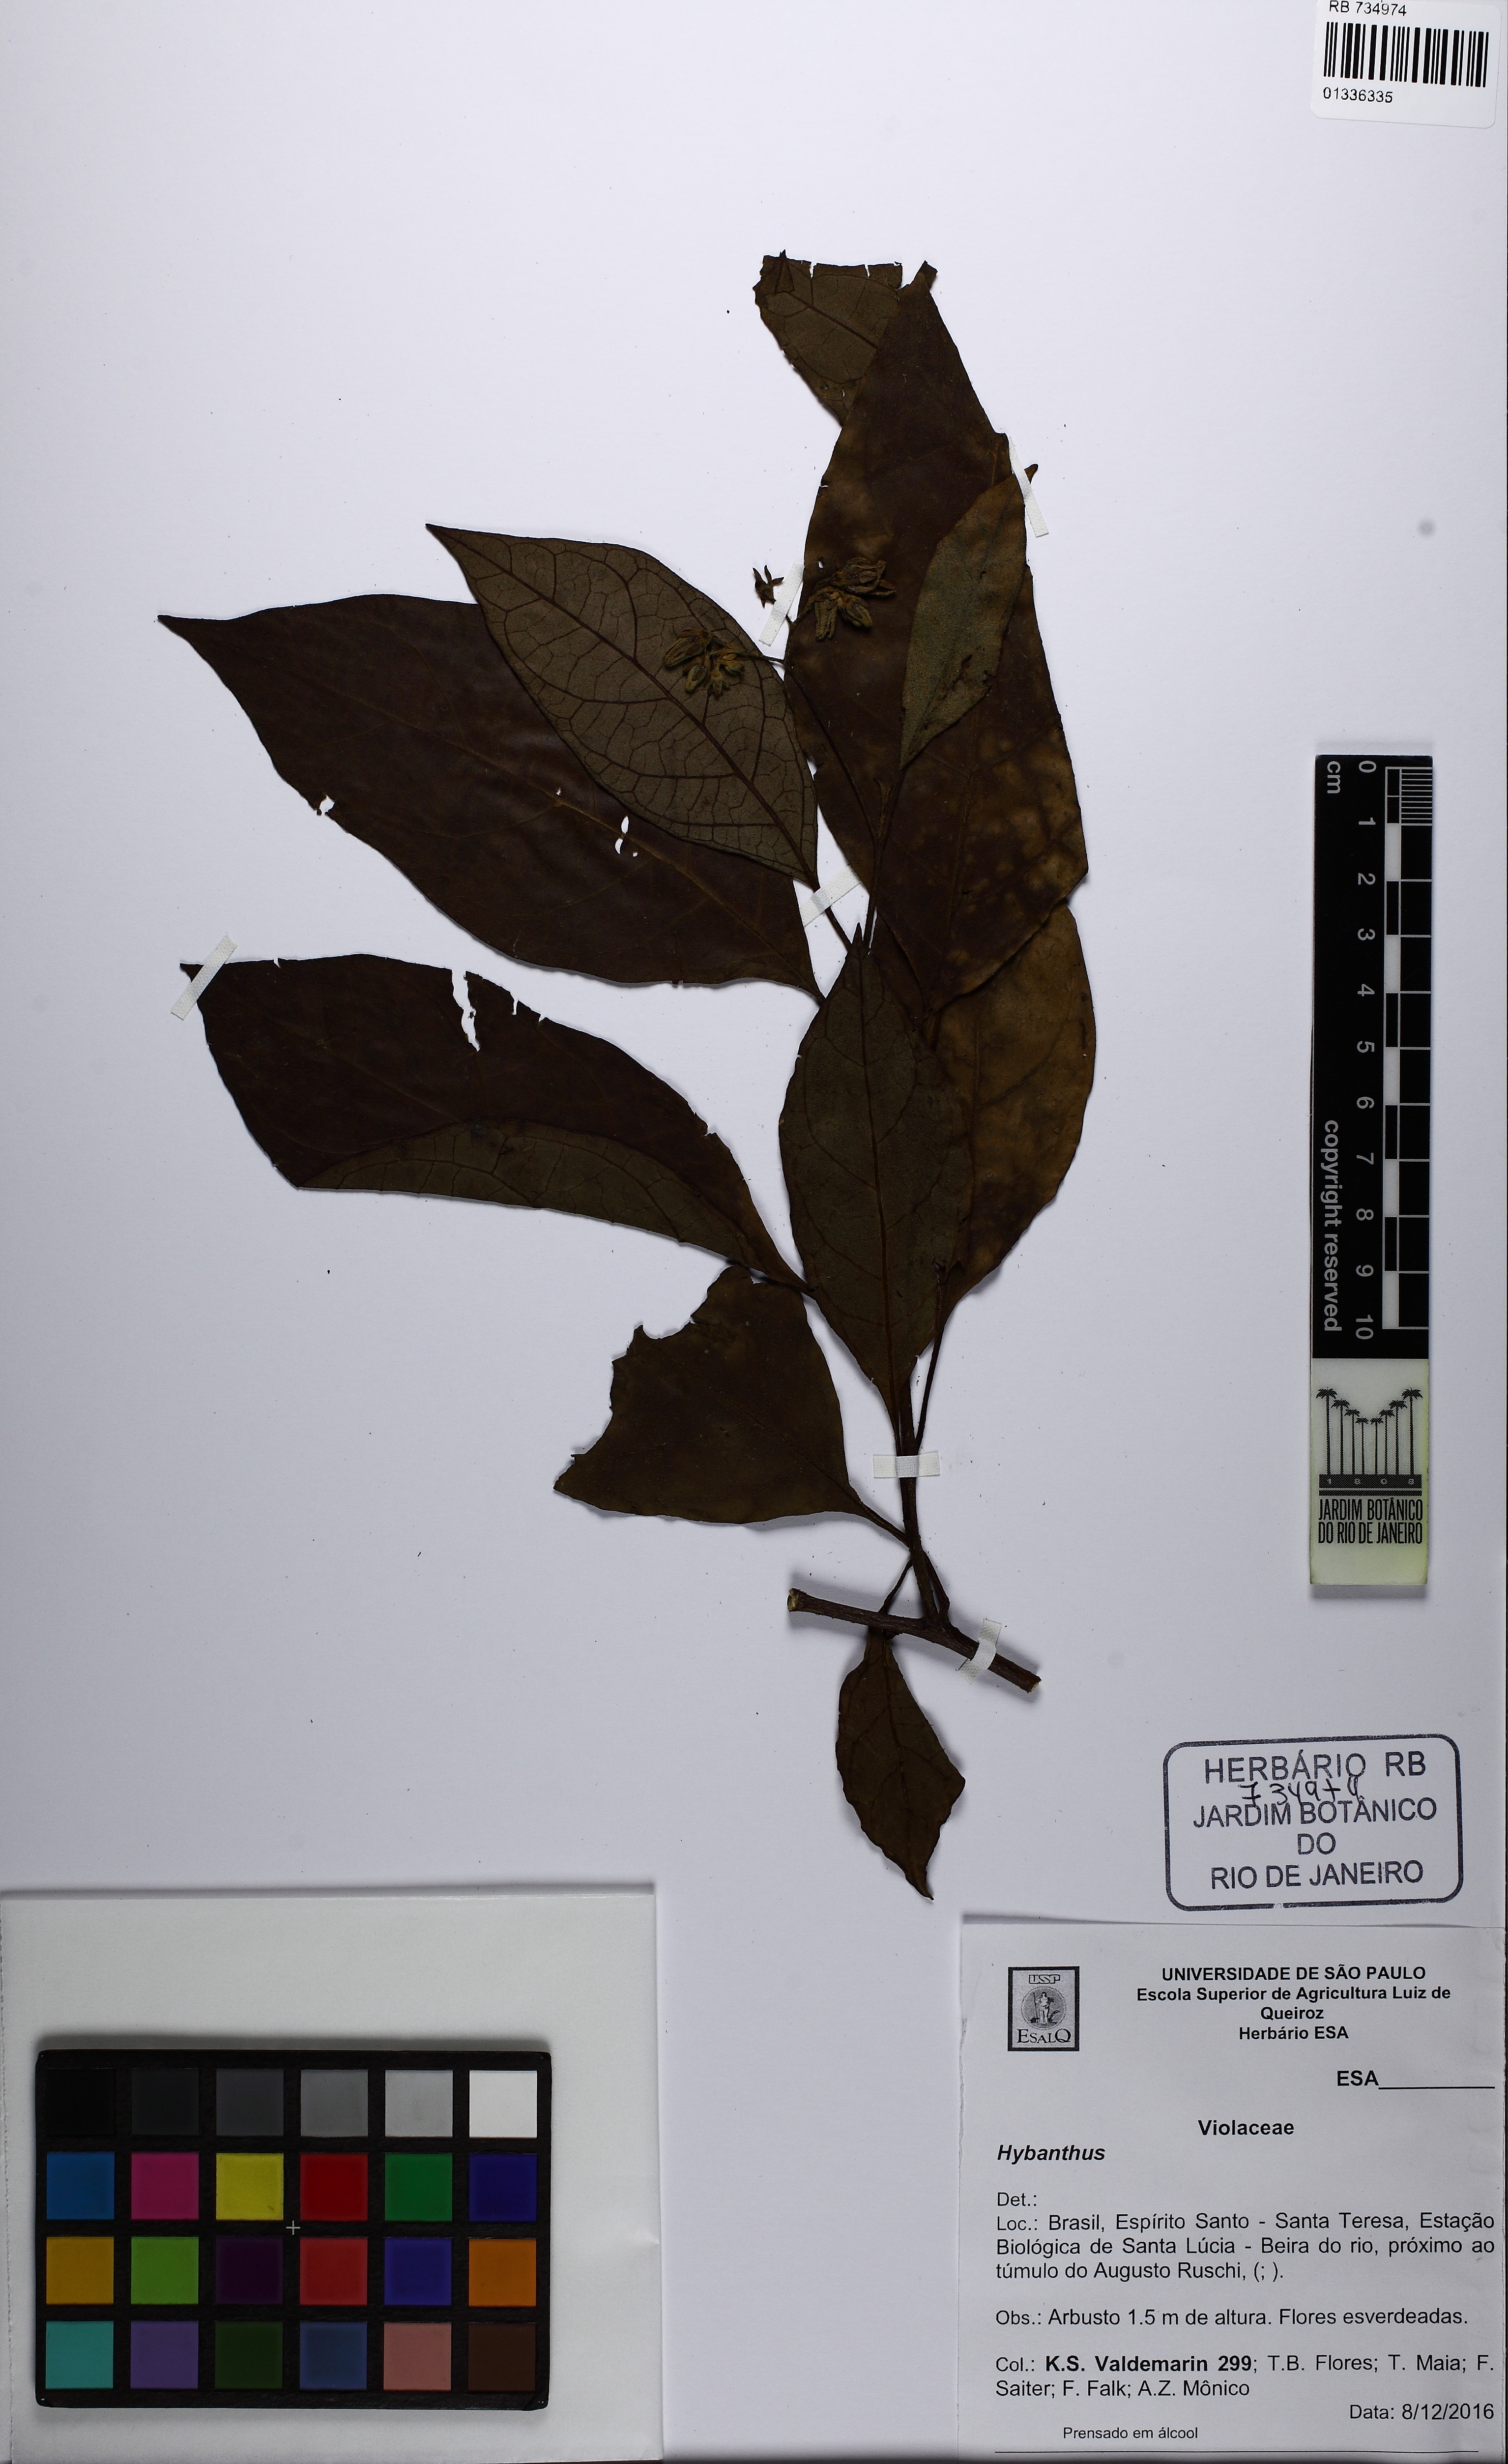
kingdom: Plantae
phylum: Tracheophyta
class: Magnoliopsida
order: Malpighiales
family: Violaceae
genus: Hybanthus
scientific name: Hybanthus
